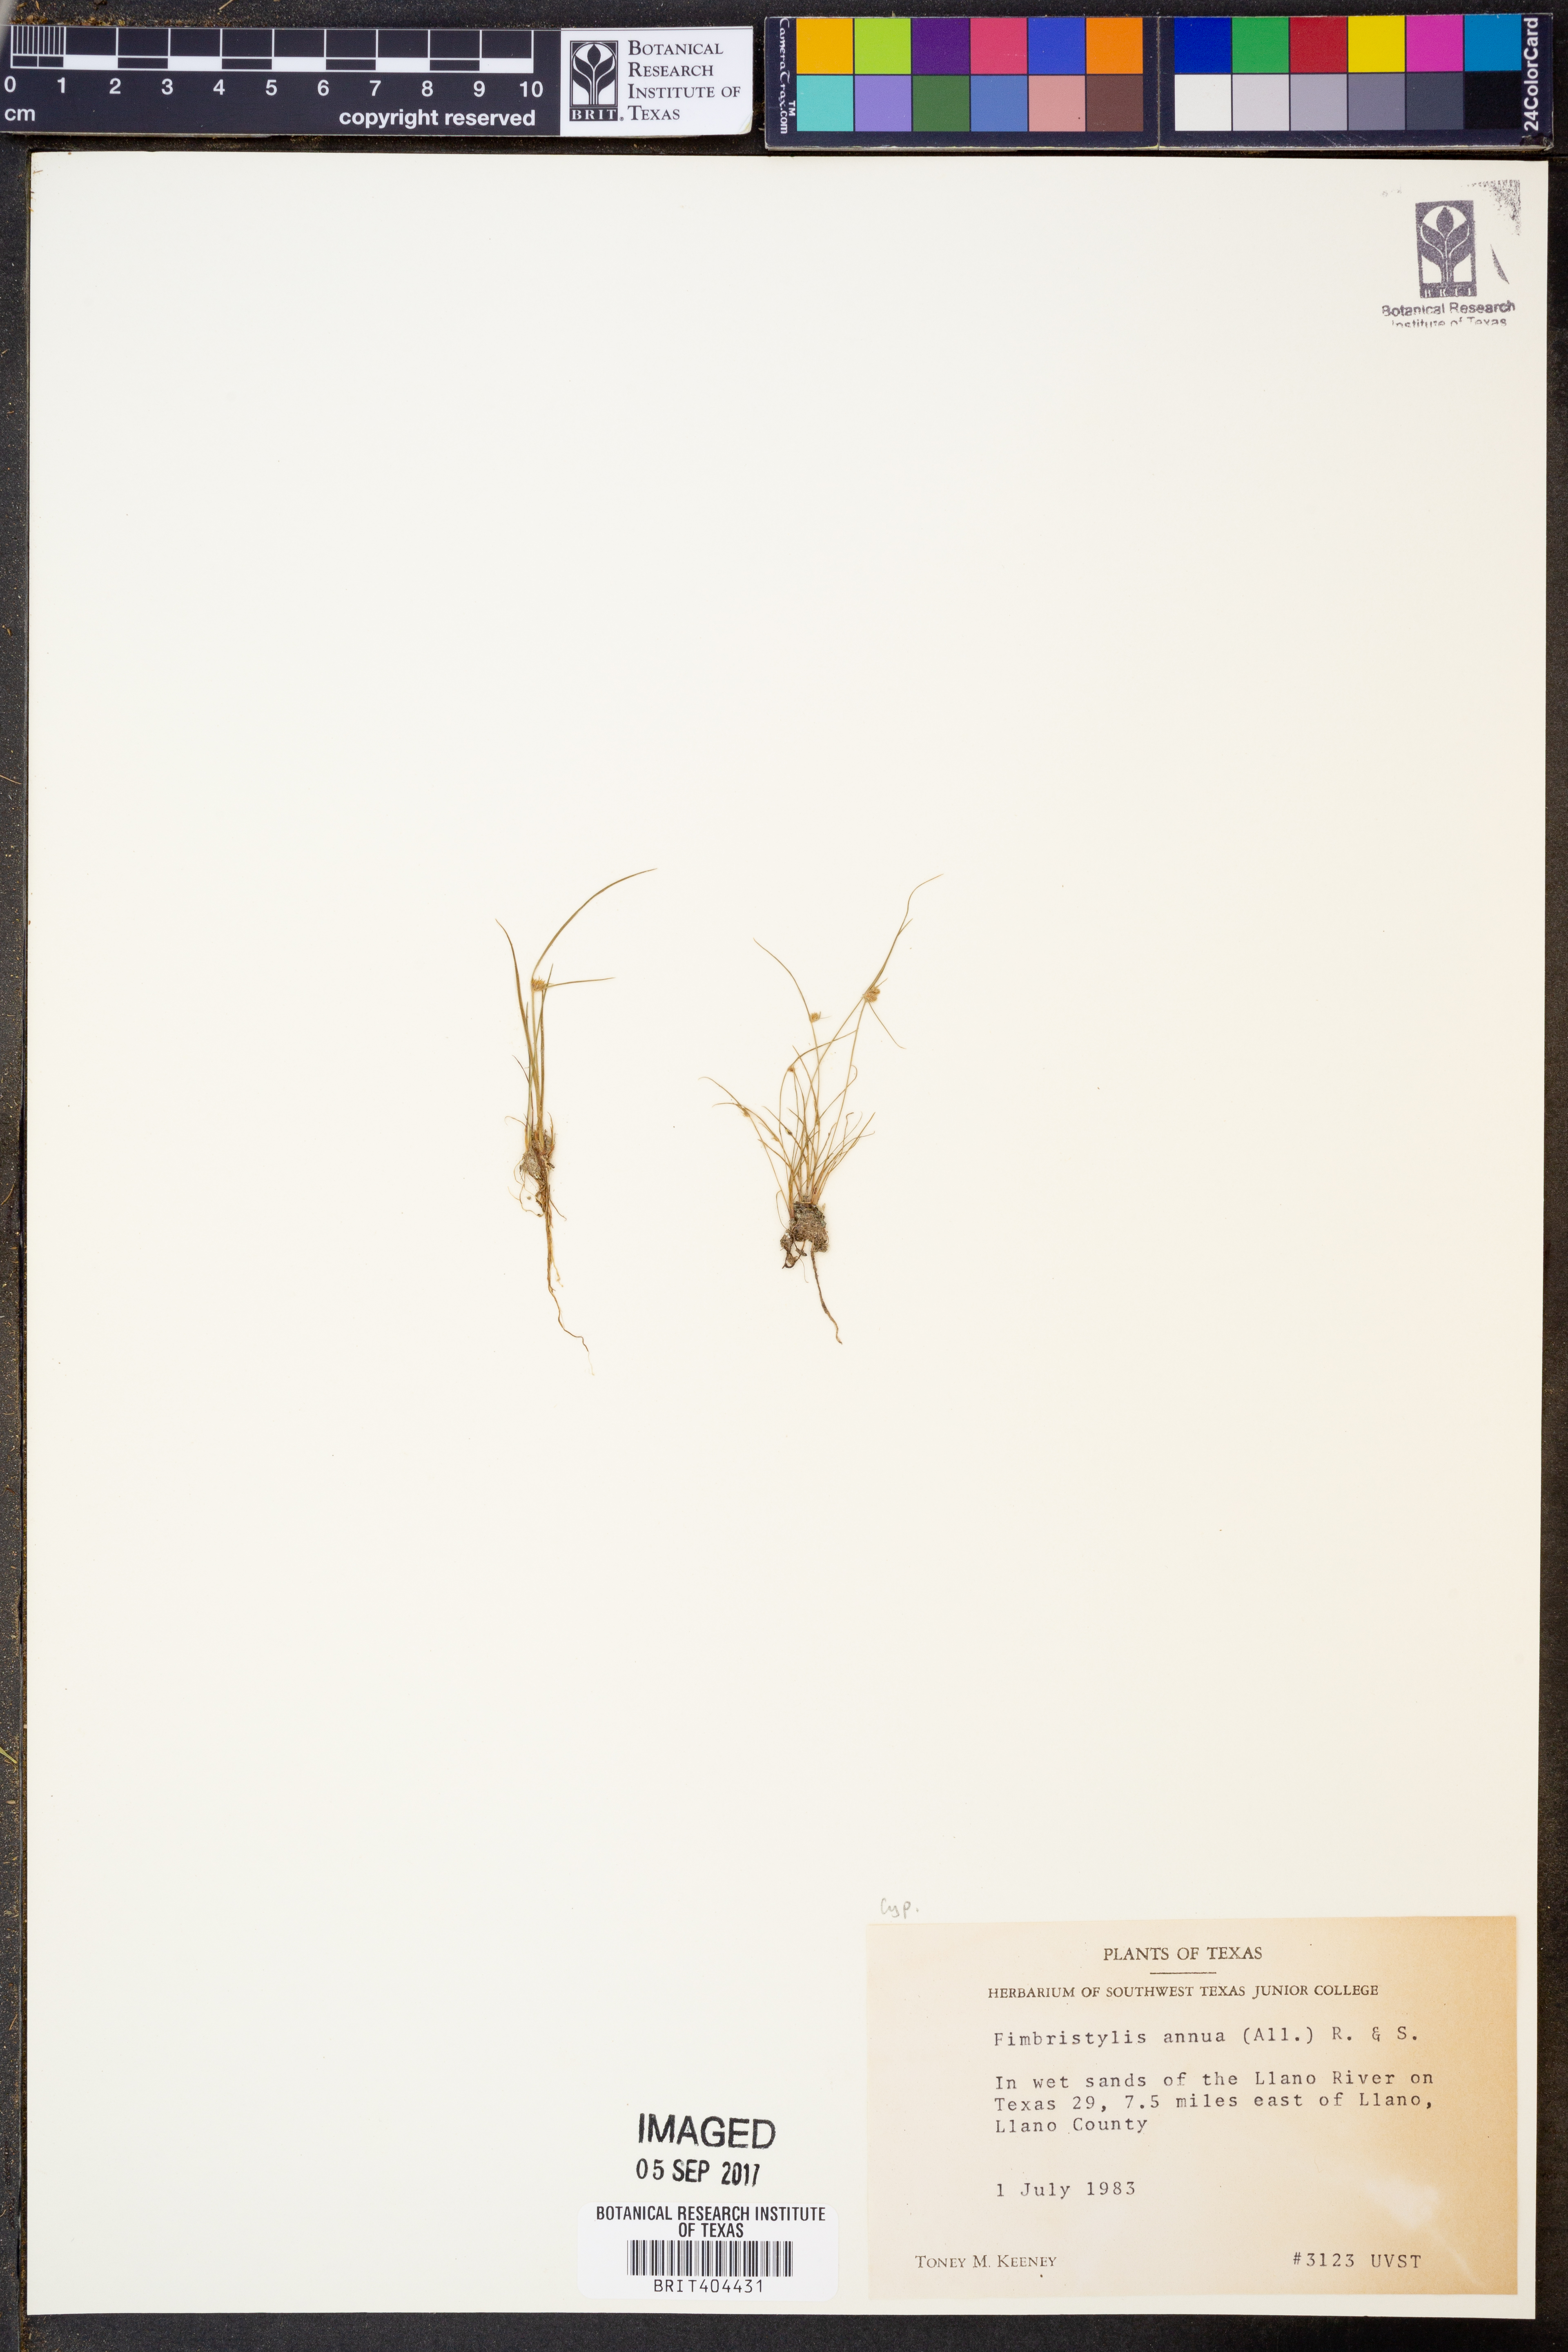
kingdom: Plantae
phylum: Tracheophyta
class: Liliopsida
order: Poales
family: Cyperaceae
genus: Fimbristylis
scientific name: Fimbristylis dichotoma
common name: Forked fimbry
